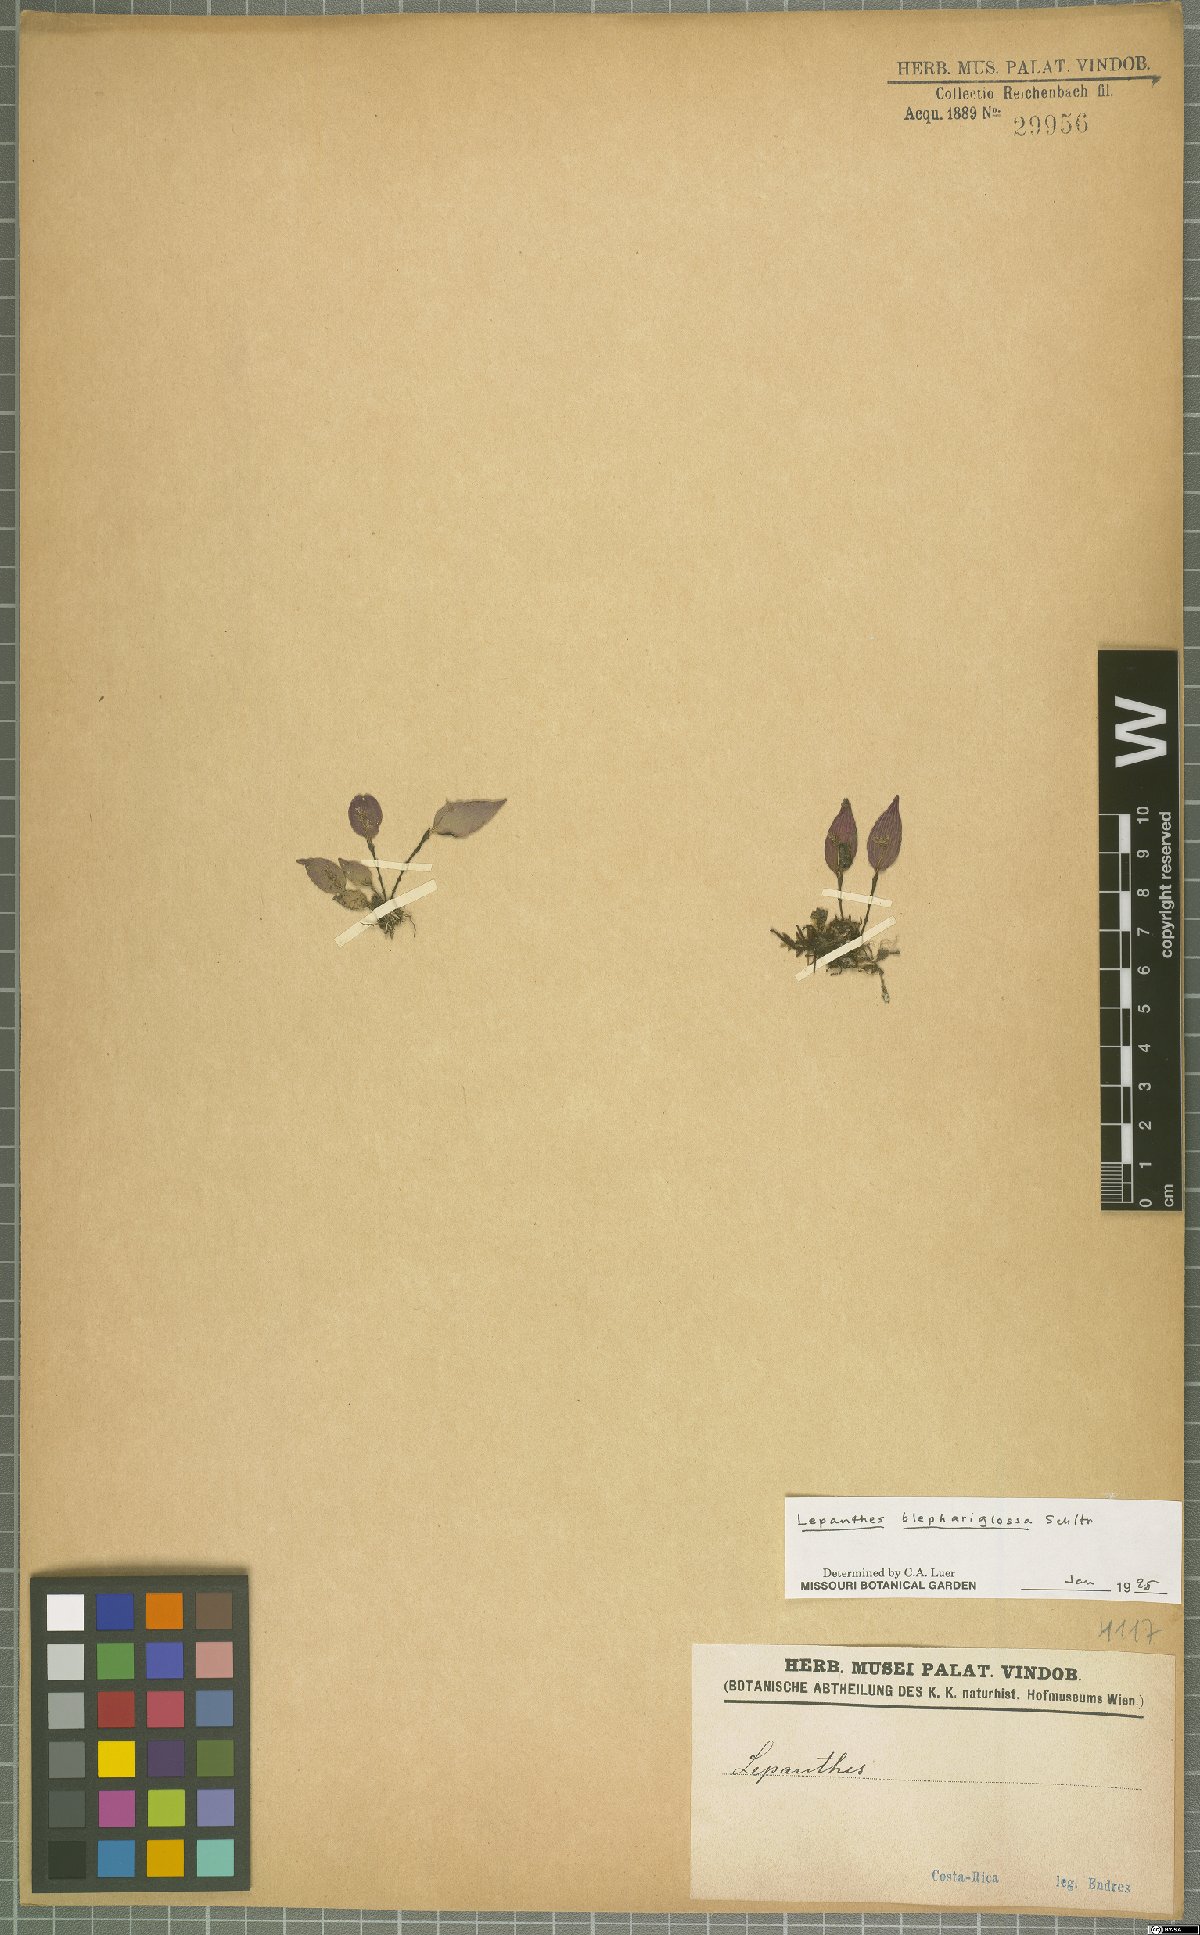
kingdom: Plantae
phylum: Tracheophyta
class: Liliopsida
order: Asparagales
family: Orchidaceae
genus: Lepanthes
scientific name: Lepanthes blephariglossa
